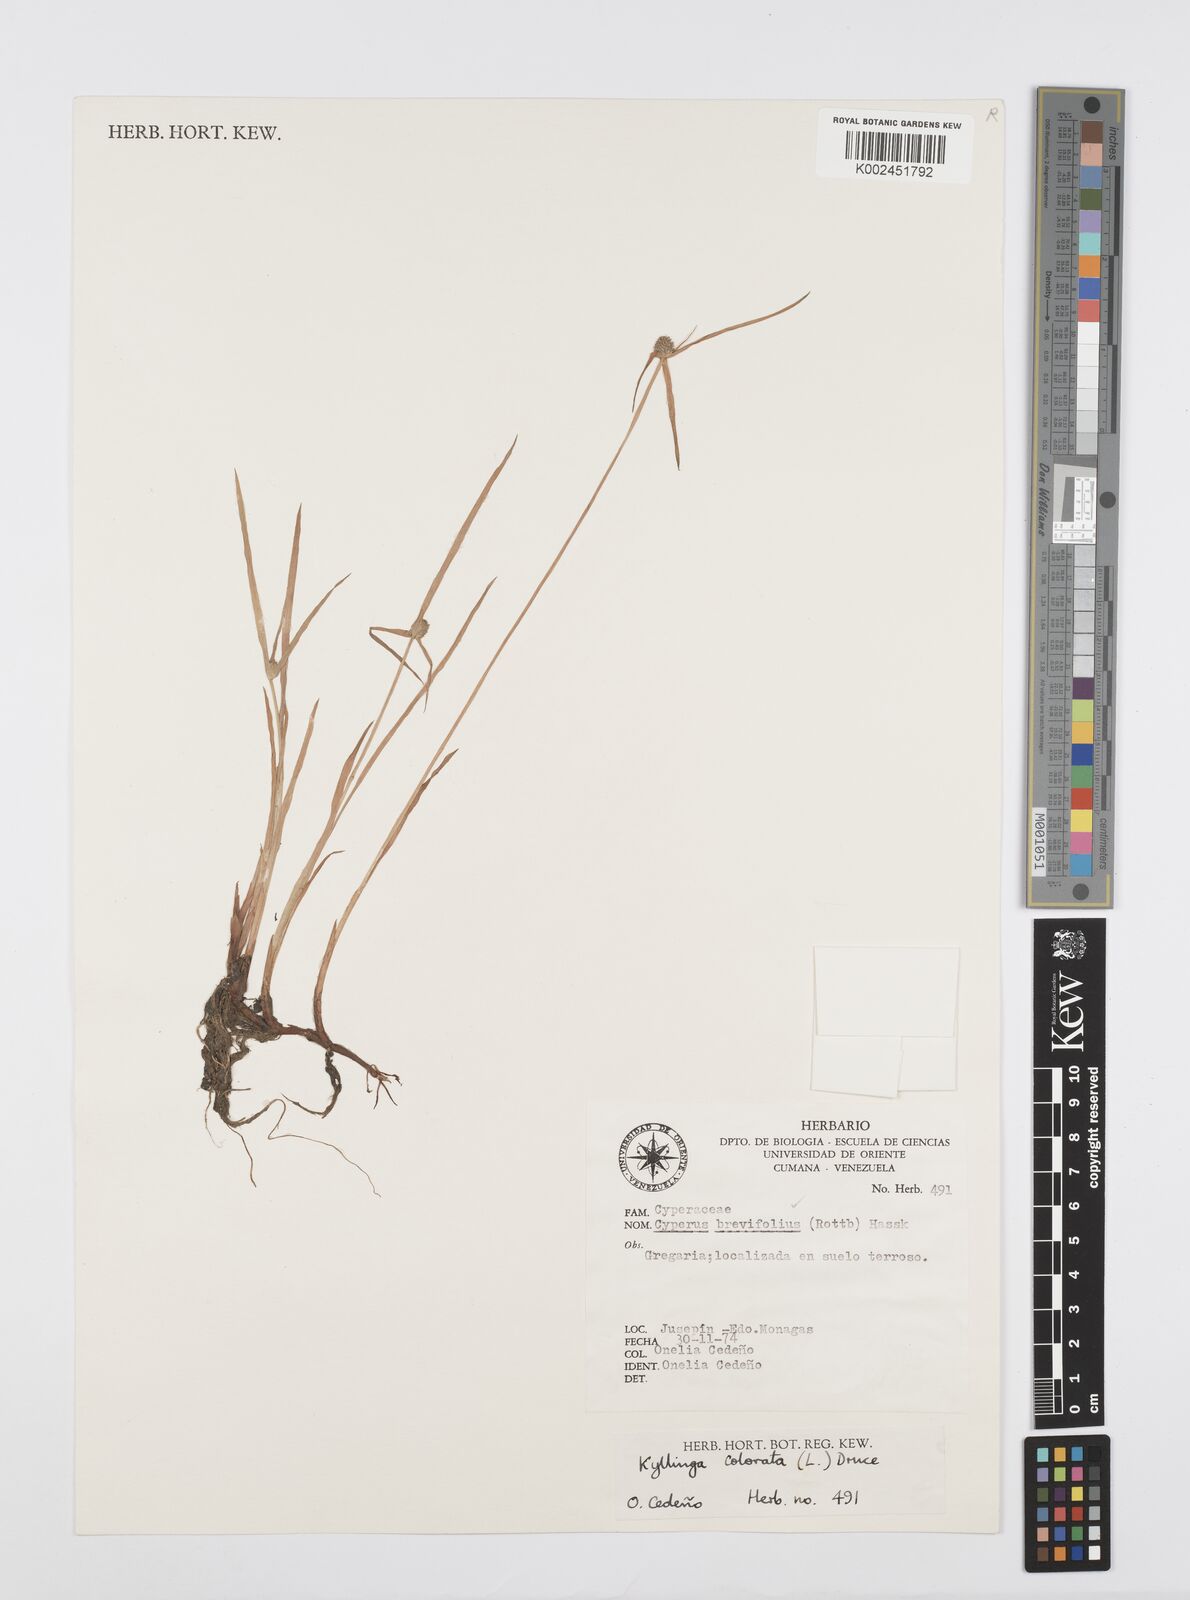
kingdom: Plantae
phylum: Tracheophyta
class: Liliopsida
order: Poales
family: Cyperaceae
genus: Cyperus
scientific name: Cyperus brevifolius
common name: Globe kyllinga
